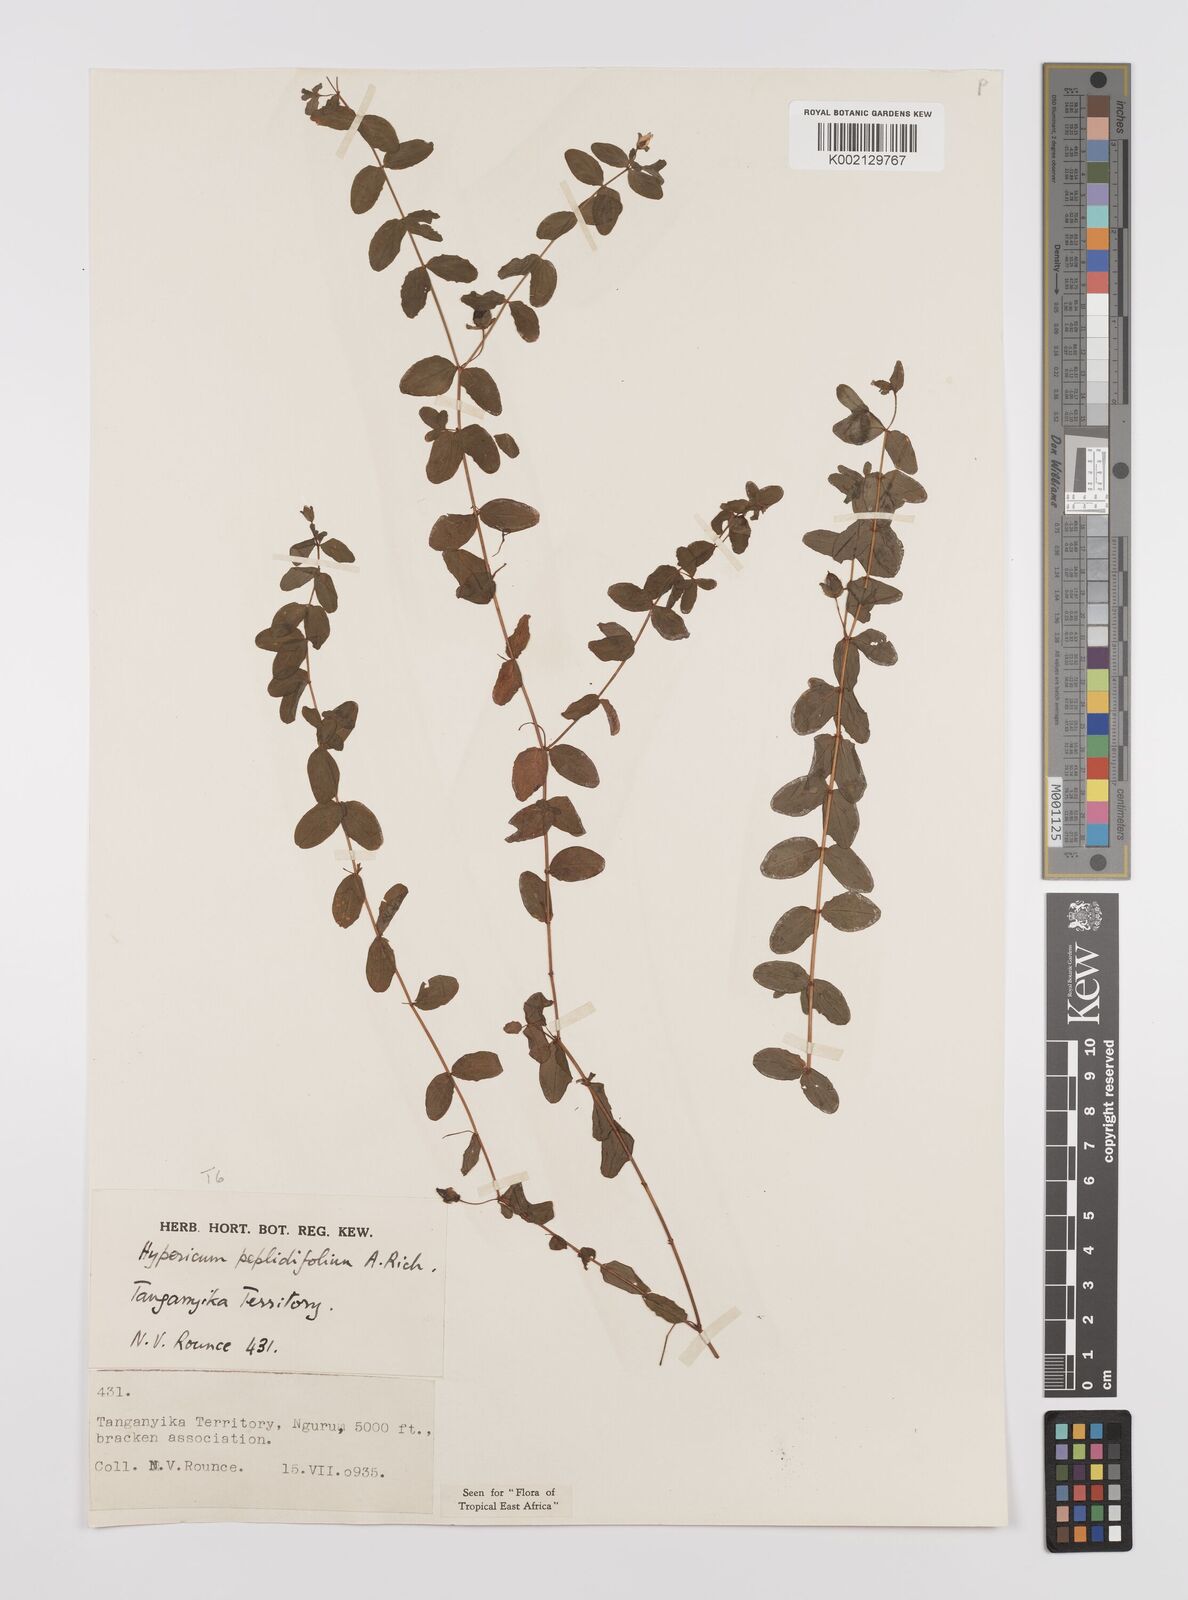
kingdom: Plantae
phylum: Tracheophyta
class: Magnoliopsida
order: Malpighiales
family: Hypericaceae
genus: Hypericum
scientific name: Hypericum peplidifolium
